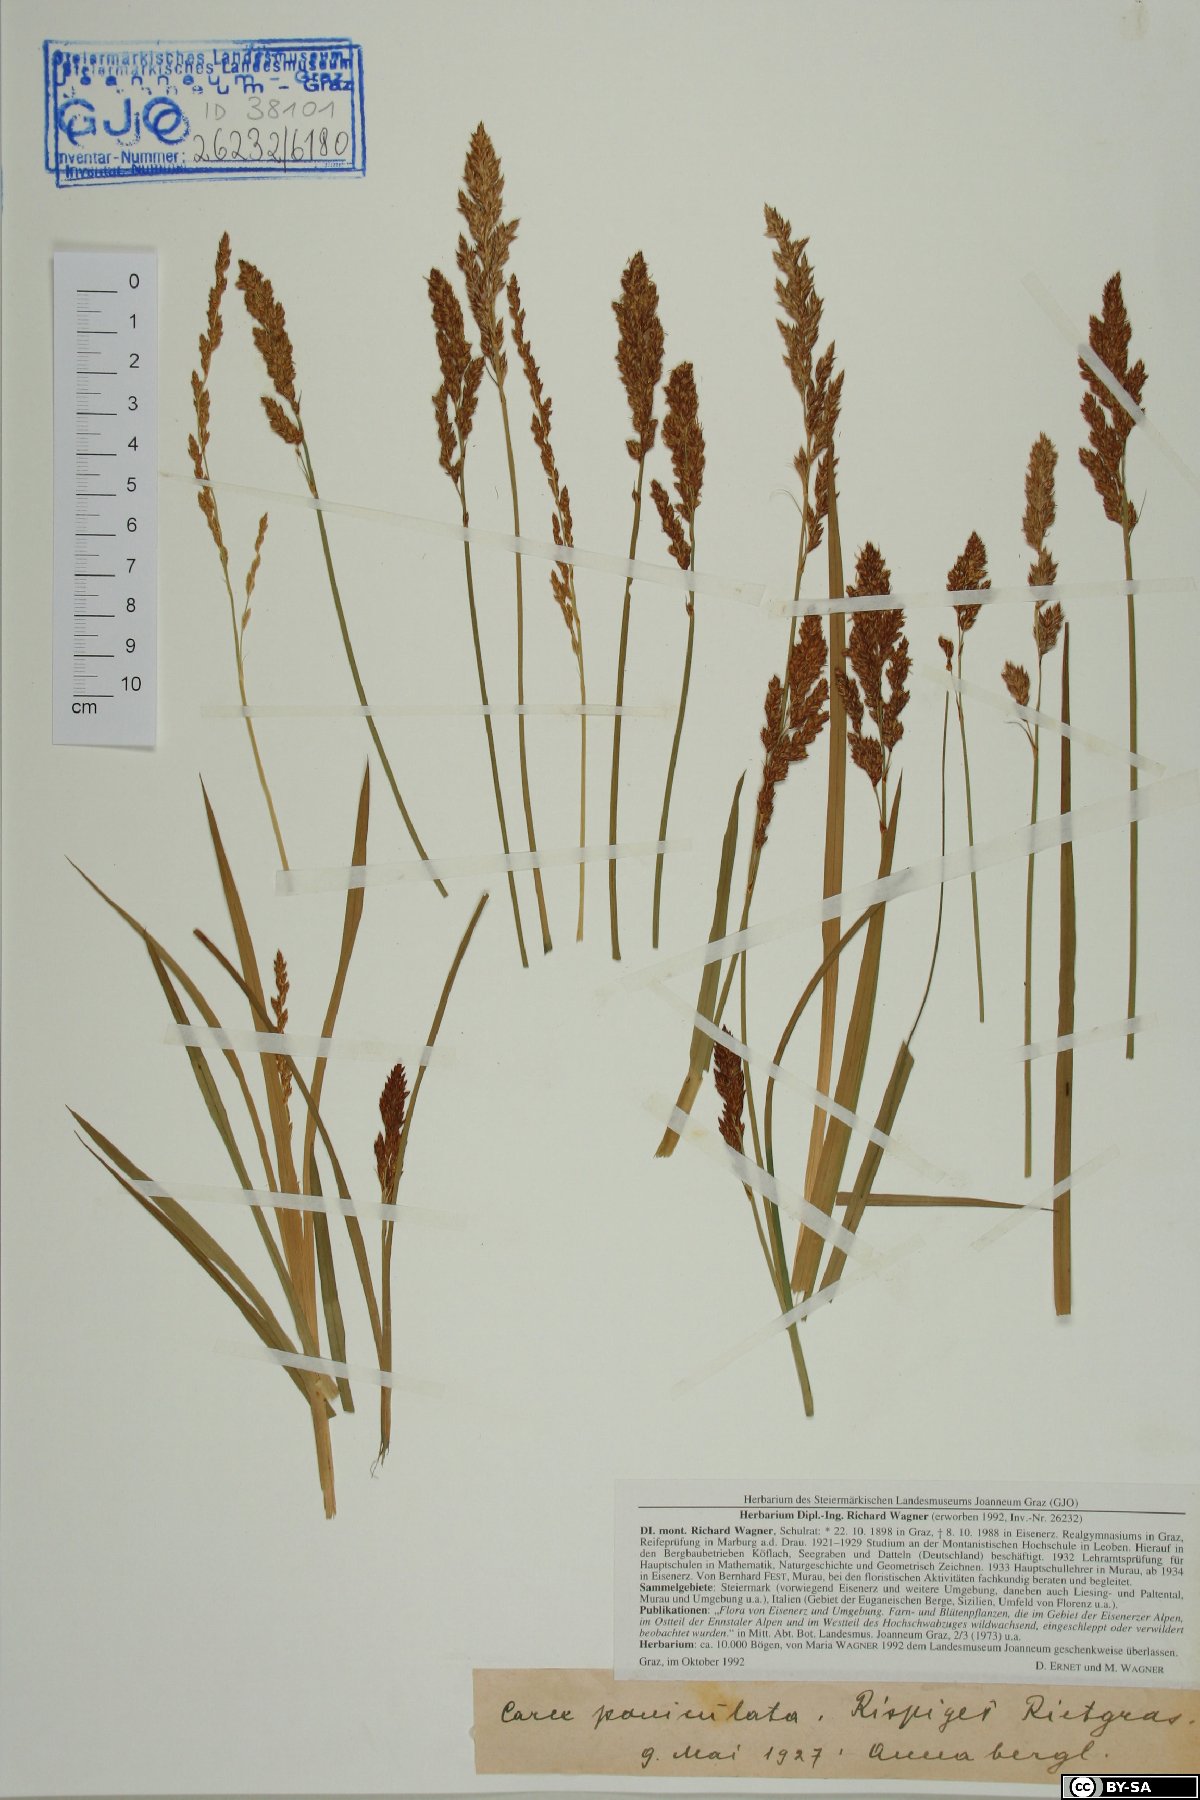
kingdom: Plantae
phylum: Tracheophyta
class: Liliopsida
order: Poales
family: Cyperaceae
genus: Carex
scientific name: Carex paniculata
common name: Greater tussock-sedge
